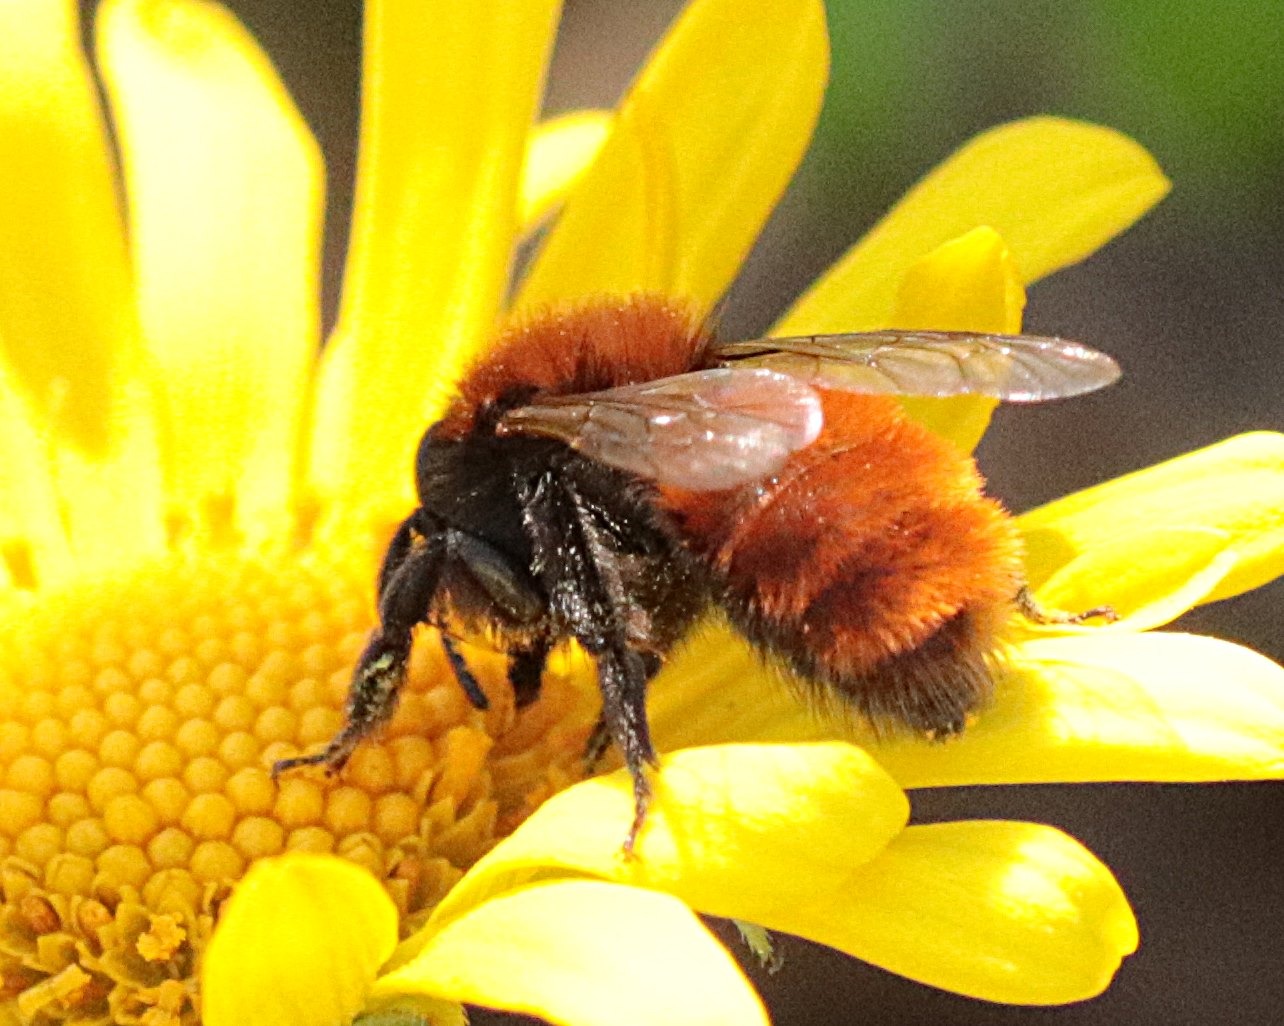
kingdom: Animalia
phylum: Arthropoda
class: Insecta
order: Hymenoptera
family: Andrenidae
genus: Andrena
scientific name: Andrena fulva
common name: Rødpelset jordbi
